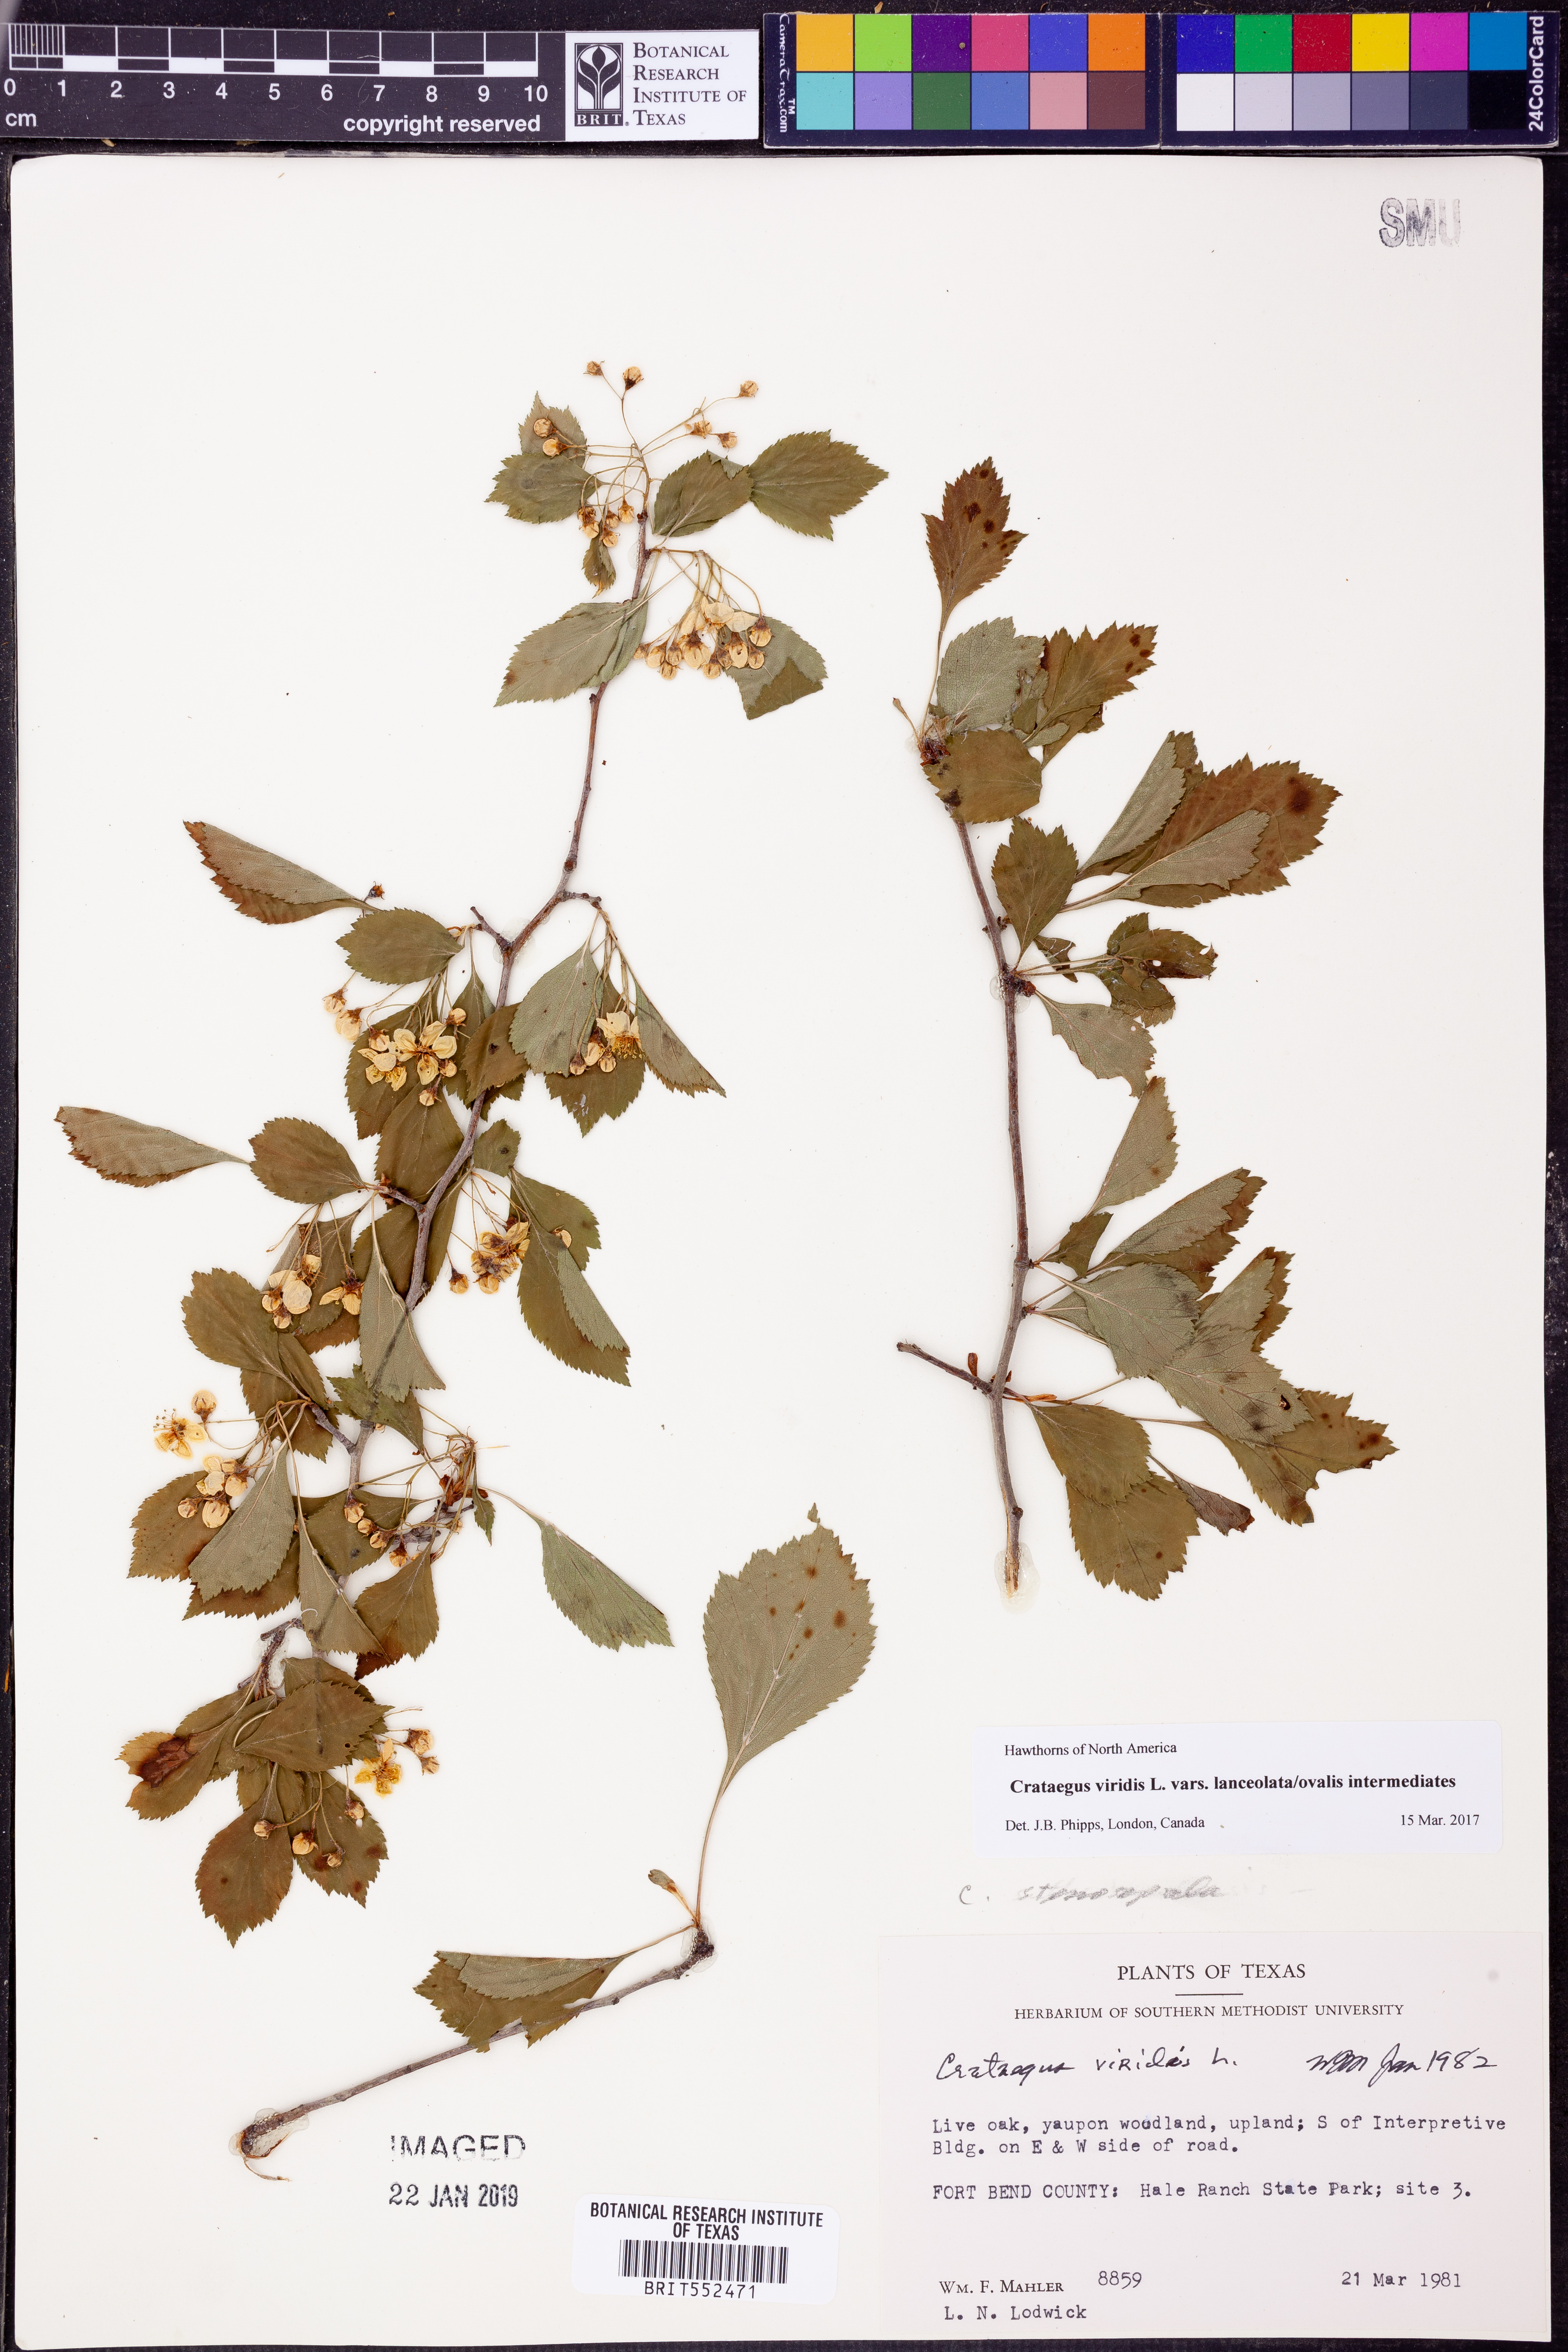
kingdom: Plantae
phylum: Tracheophyta
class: Magnoliopsida
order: Rosales
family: Rosaceae
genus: Crataegus
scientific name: Crataegus viridis
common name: Southernthorn
